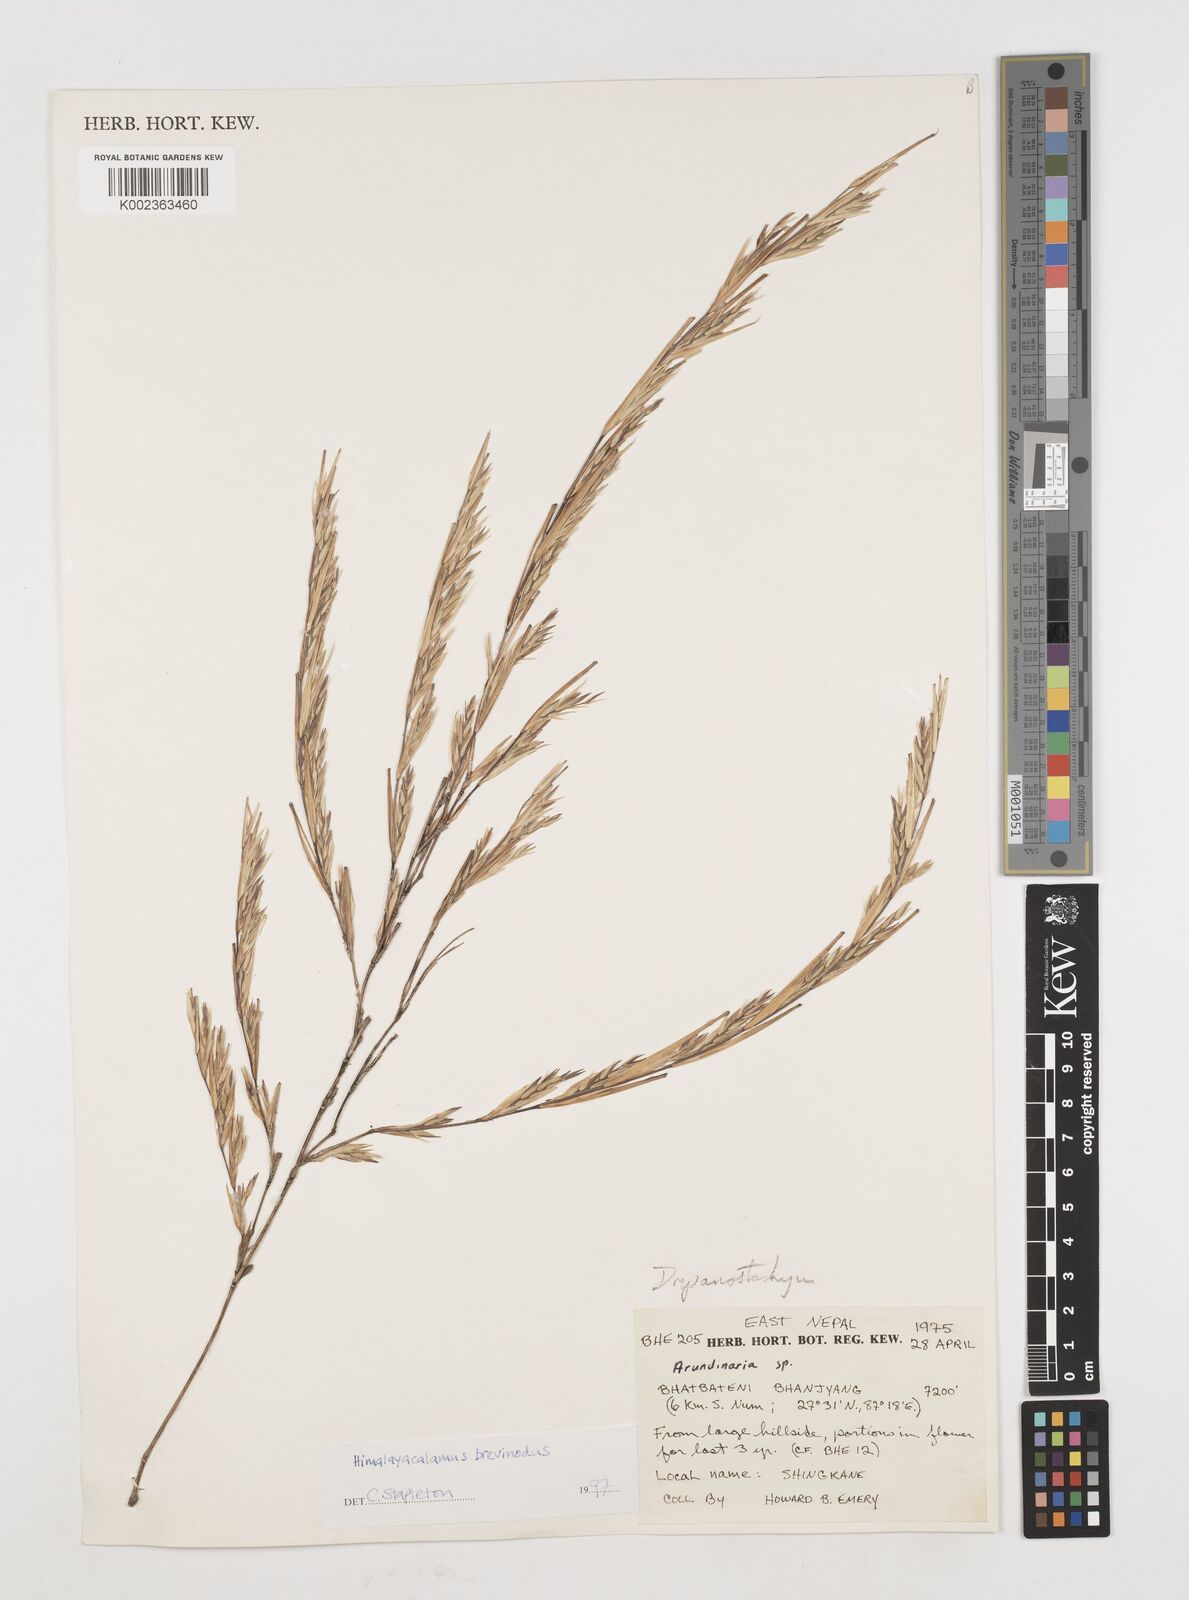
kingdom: Plantae
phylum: Tracheophyta
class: Liliopsida
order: Poales
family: Poaceae
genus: Himalayacalamus
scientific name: Himalayacalamus brevinodus
